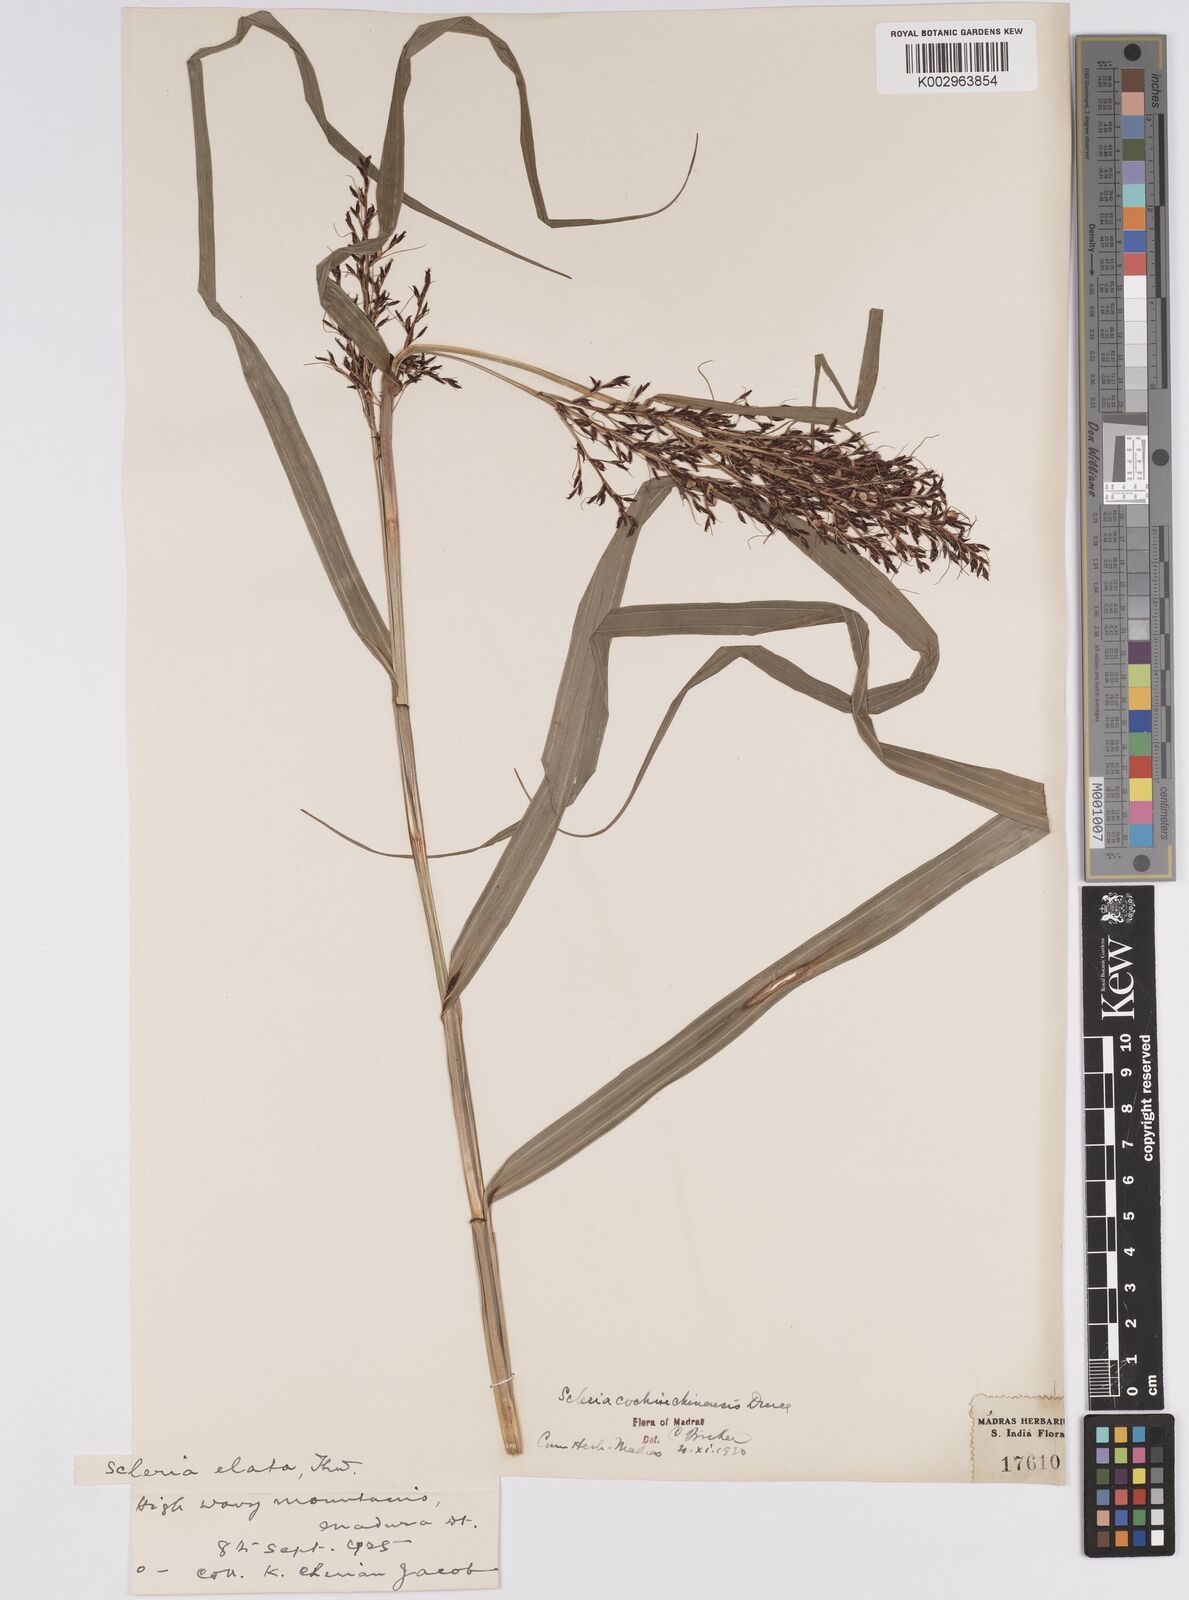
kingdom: Plantae
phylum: Tracheophyta
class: Liliopsida
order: Poales
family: Cyperaceae
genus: Scleria
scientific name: Scleria terrestris
